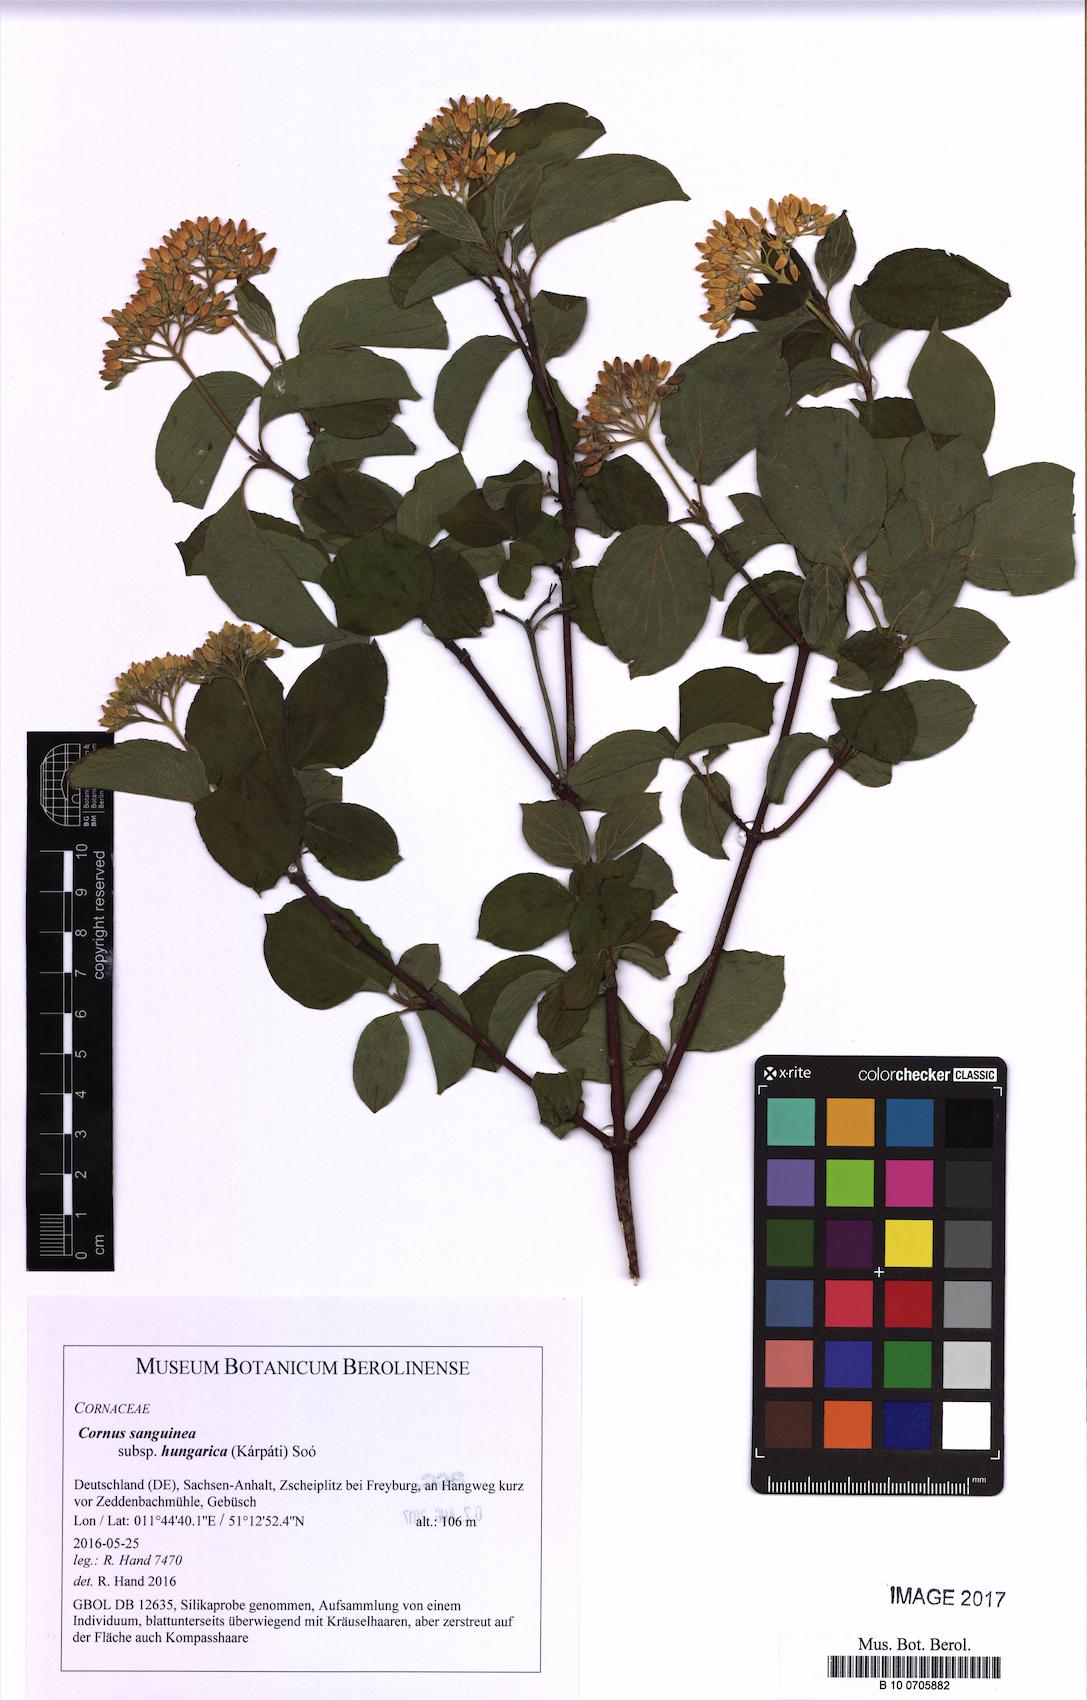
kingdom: Plantae
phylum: Tracheophyta
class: Magnoliopsida
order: Cornales
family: Cornaceae
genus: Cornus
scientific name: Cornus sanguinea
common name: Dogwood
